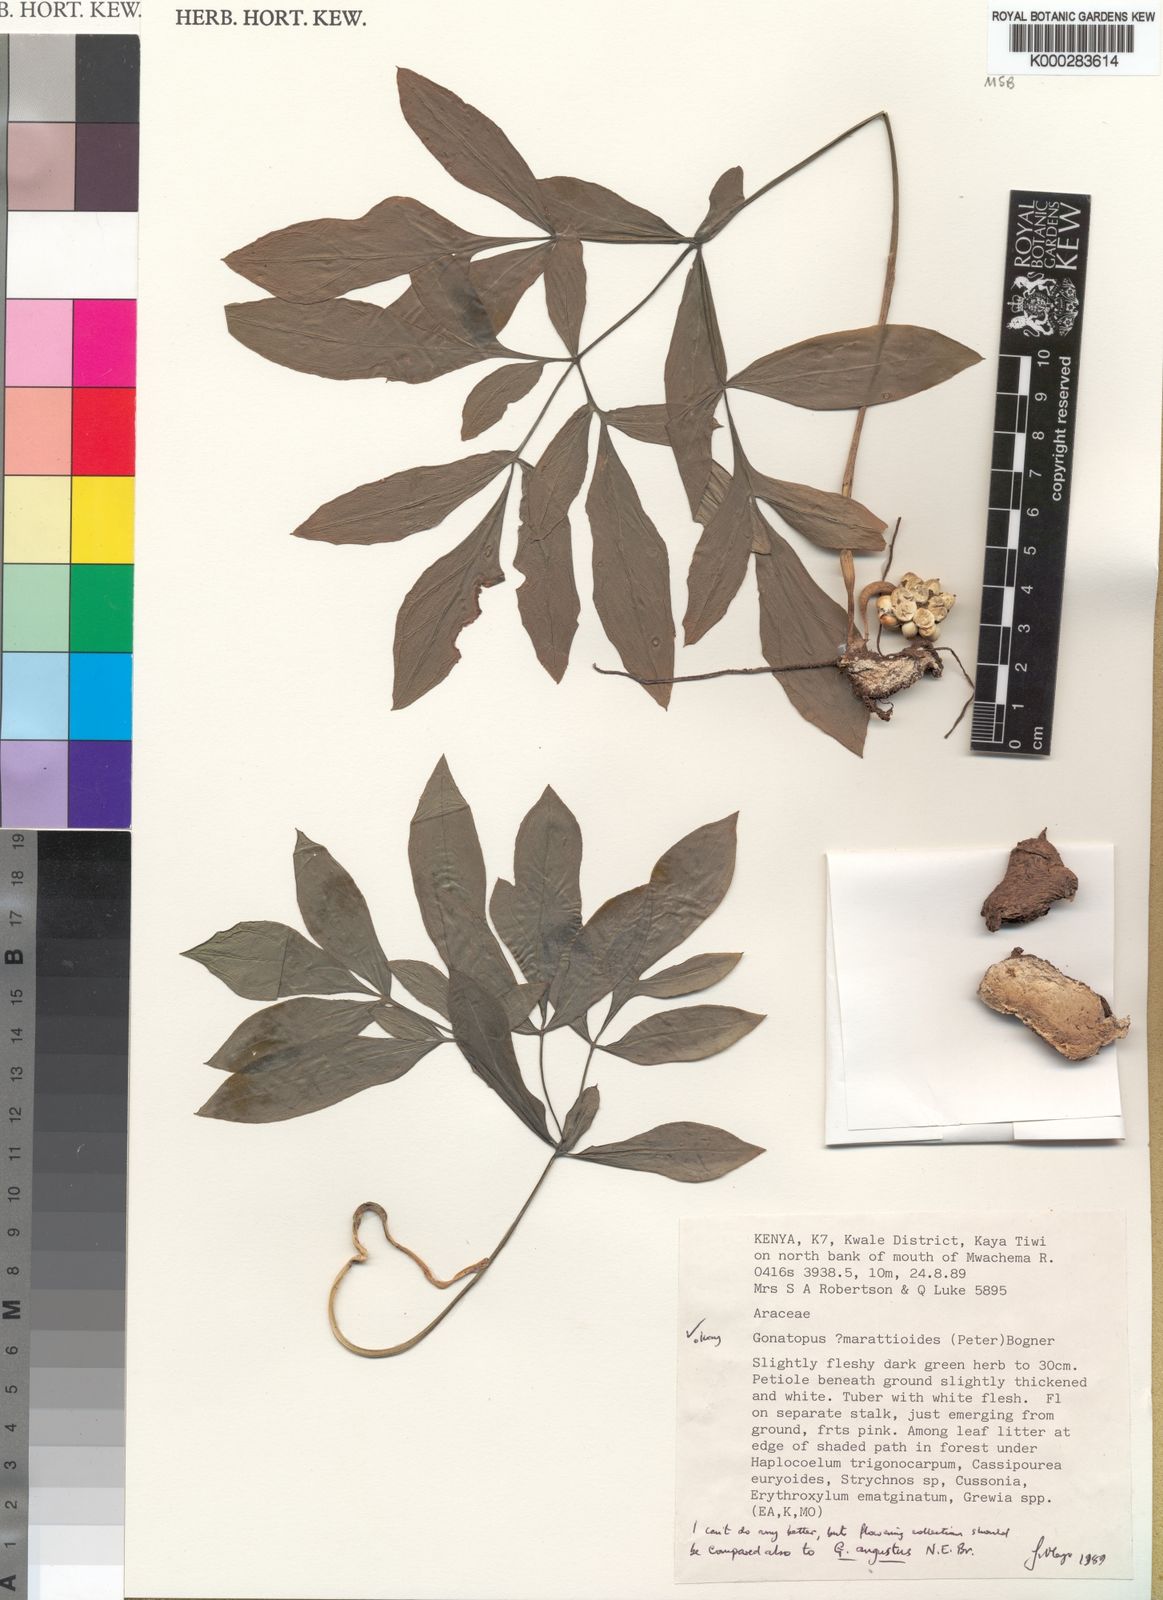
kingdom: Plantae
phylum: Tracheophyta
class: Liliopsida
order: Alismatales
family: Araceae
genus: Gonatopus
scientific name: Gonatopus marattioides
